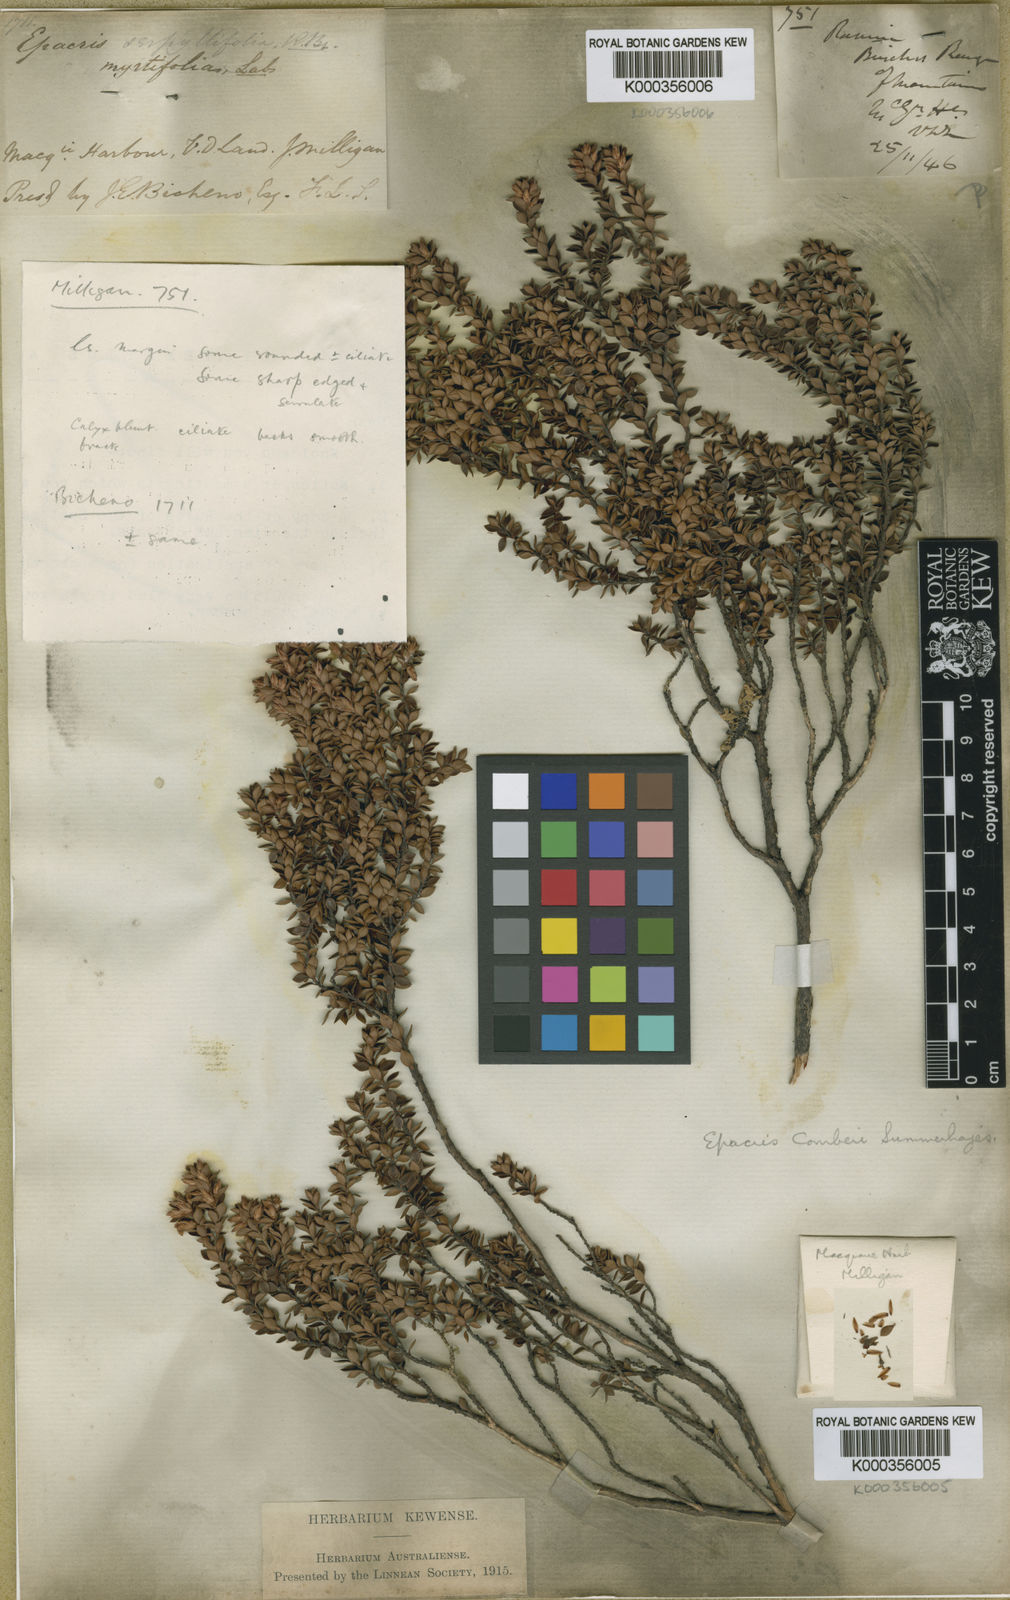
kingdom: Plantae
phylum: Tracheophyta
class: Magnoliopsida
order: Ericales
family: Ericaceae
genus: Epacris
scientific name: Epacris comberi
